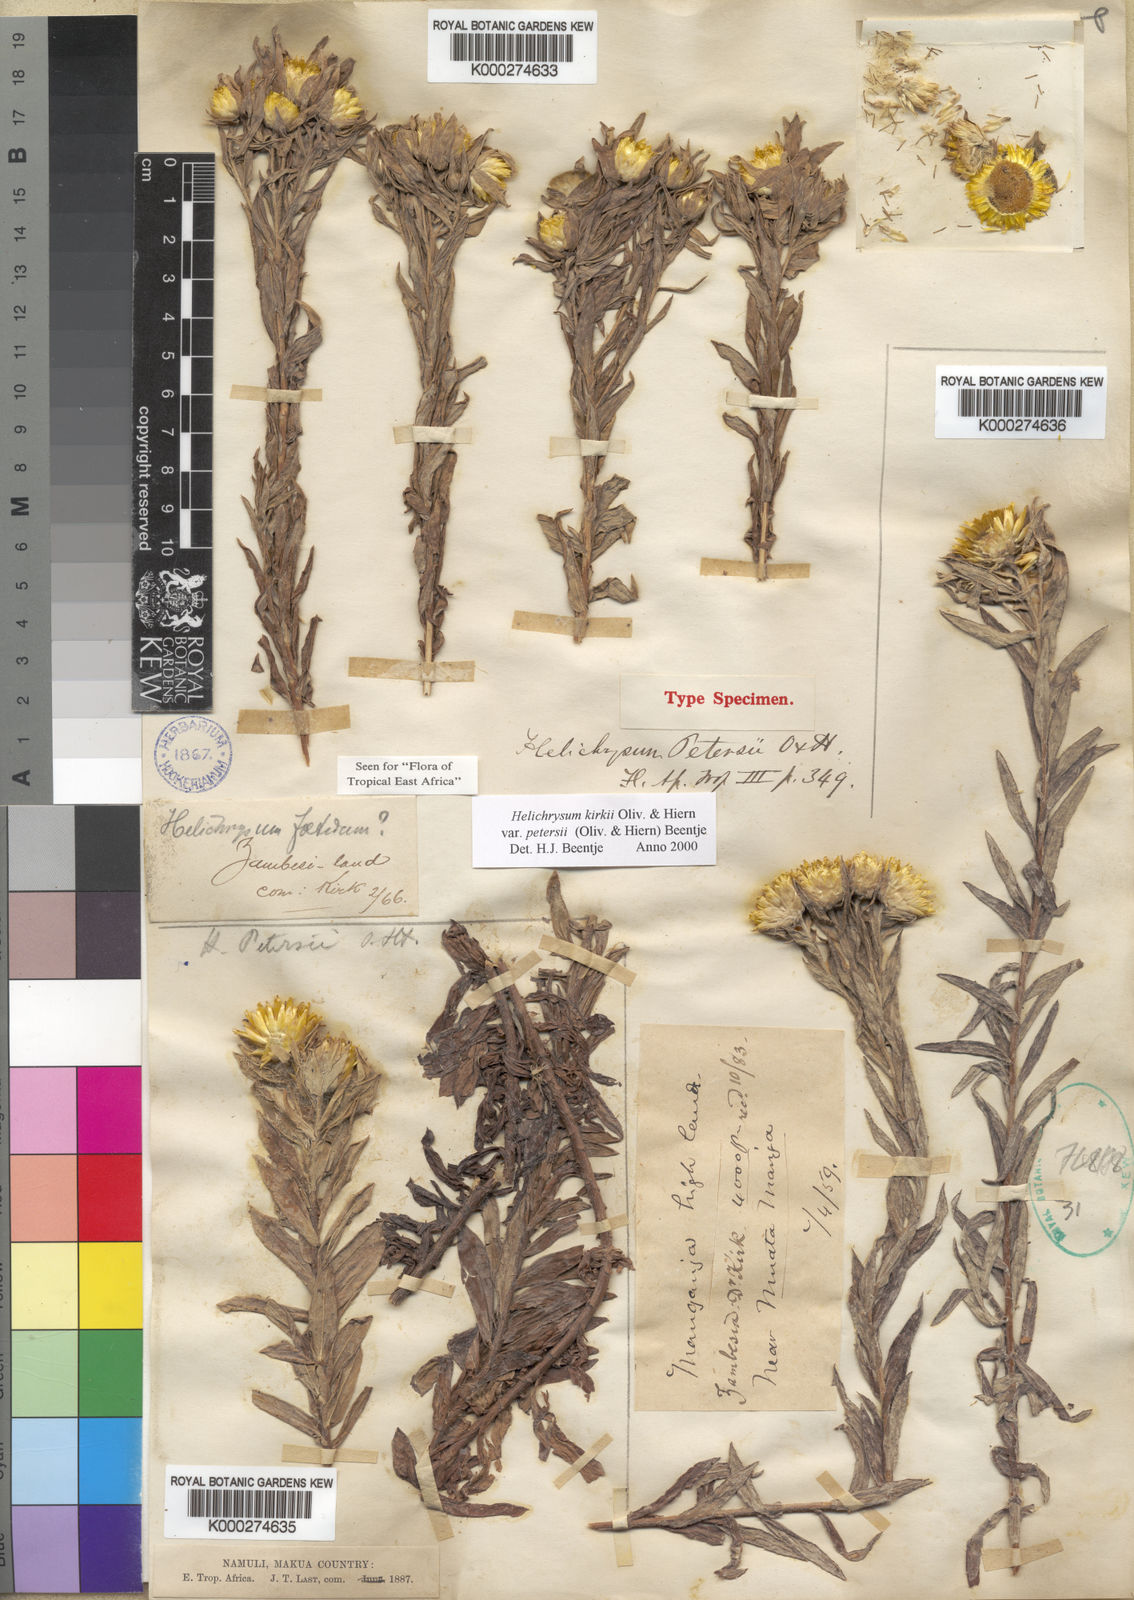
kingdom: Plantae
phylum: Tracheophyta
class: Magnoliopsida
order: Asterales
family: Asteraceae
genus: Helichrysum
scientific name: Helichrysum kirkii
